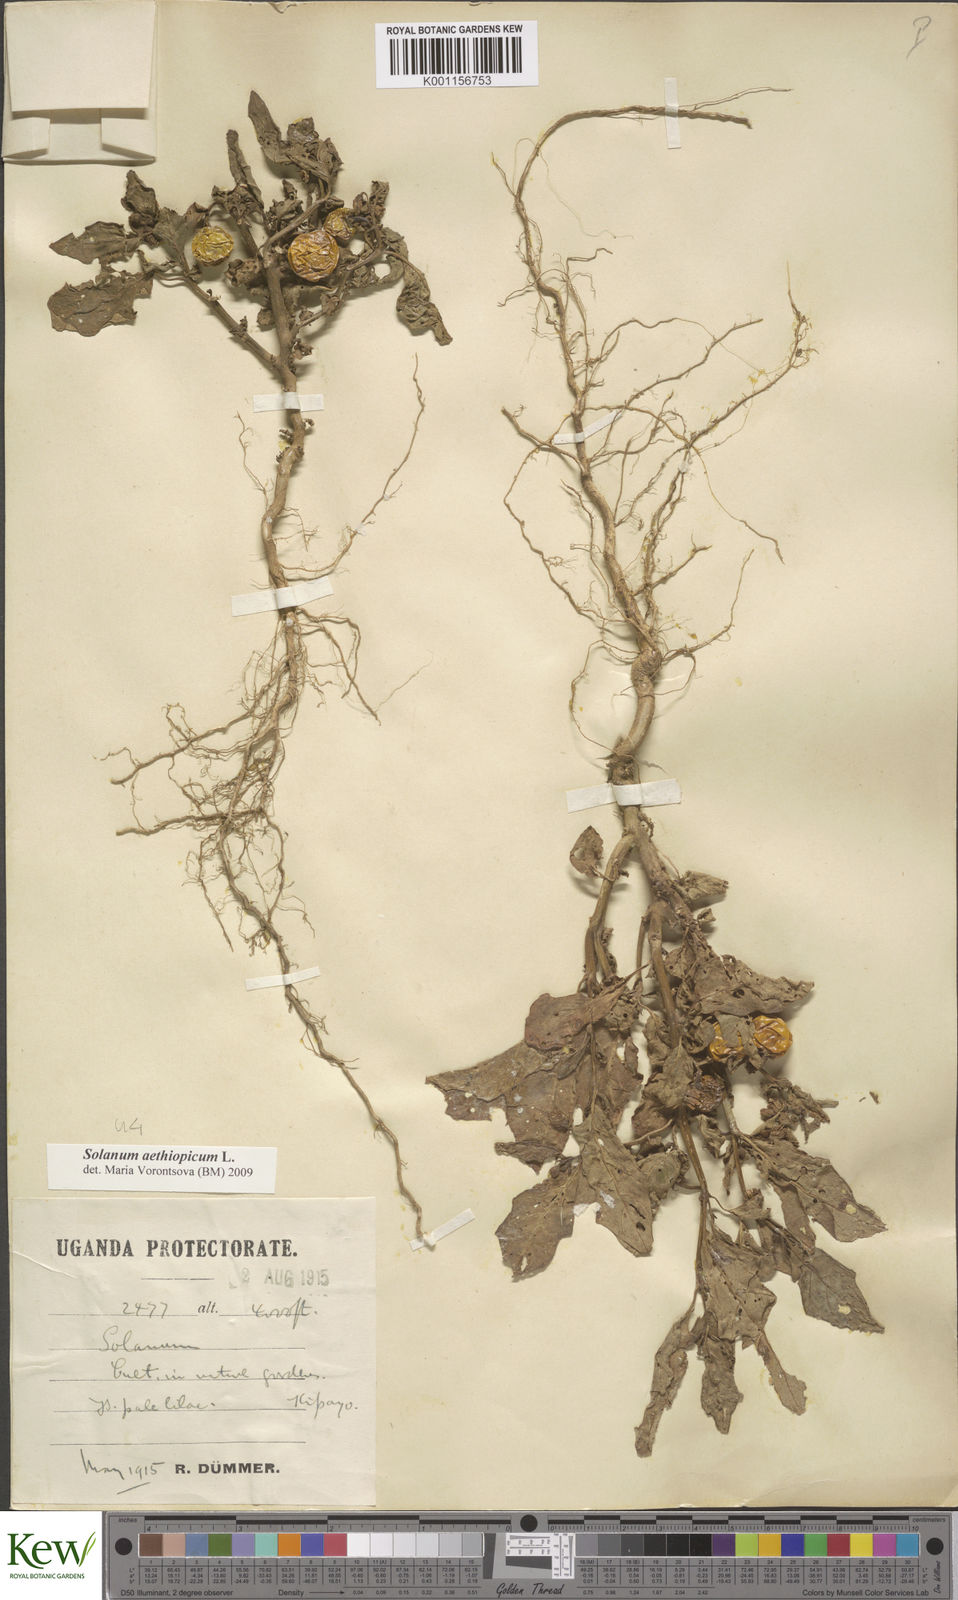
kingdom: Plantae
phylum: Tracheophyta
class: Magnoliopsida
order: Solanales
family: Solanaceae
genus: Solanum
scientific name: Solanum aethiopicum
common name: Gilo
